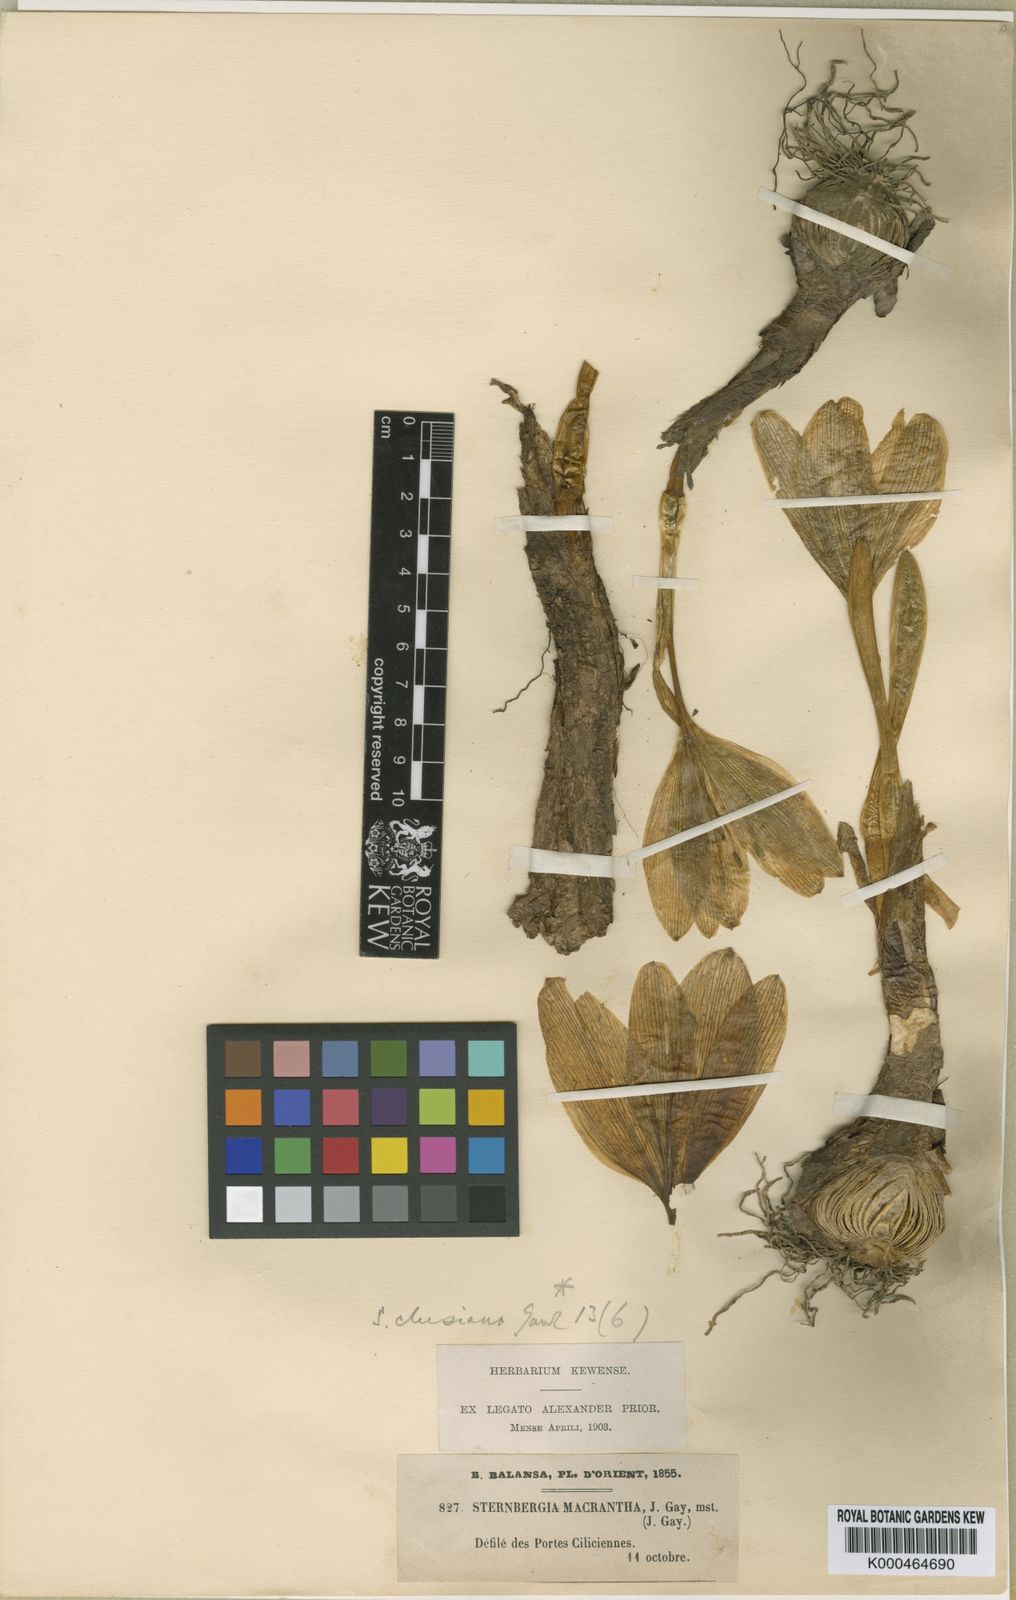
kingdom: Plantae
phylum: Tracheophyta
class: Liliopsida
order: Asparagales
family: Amaryllidaceae
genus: Sternbergia
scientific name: Sternbergia
